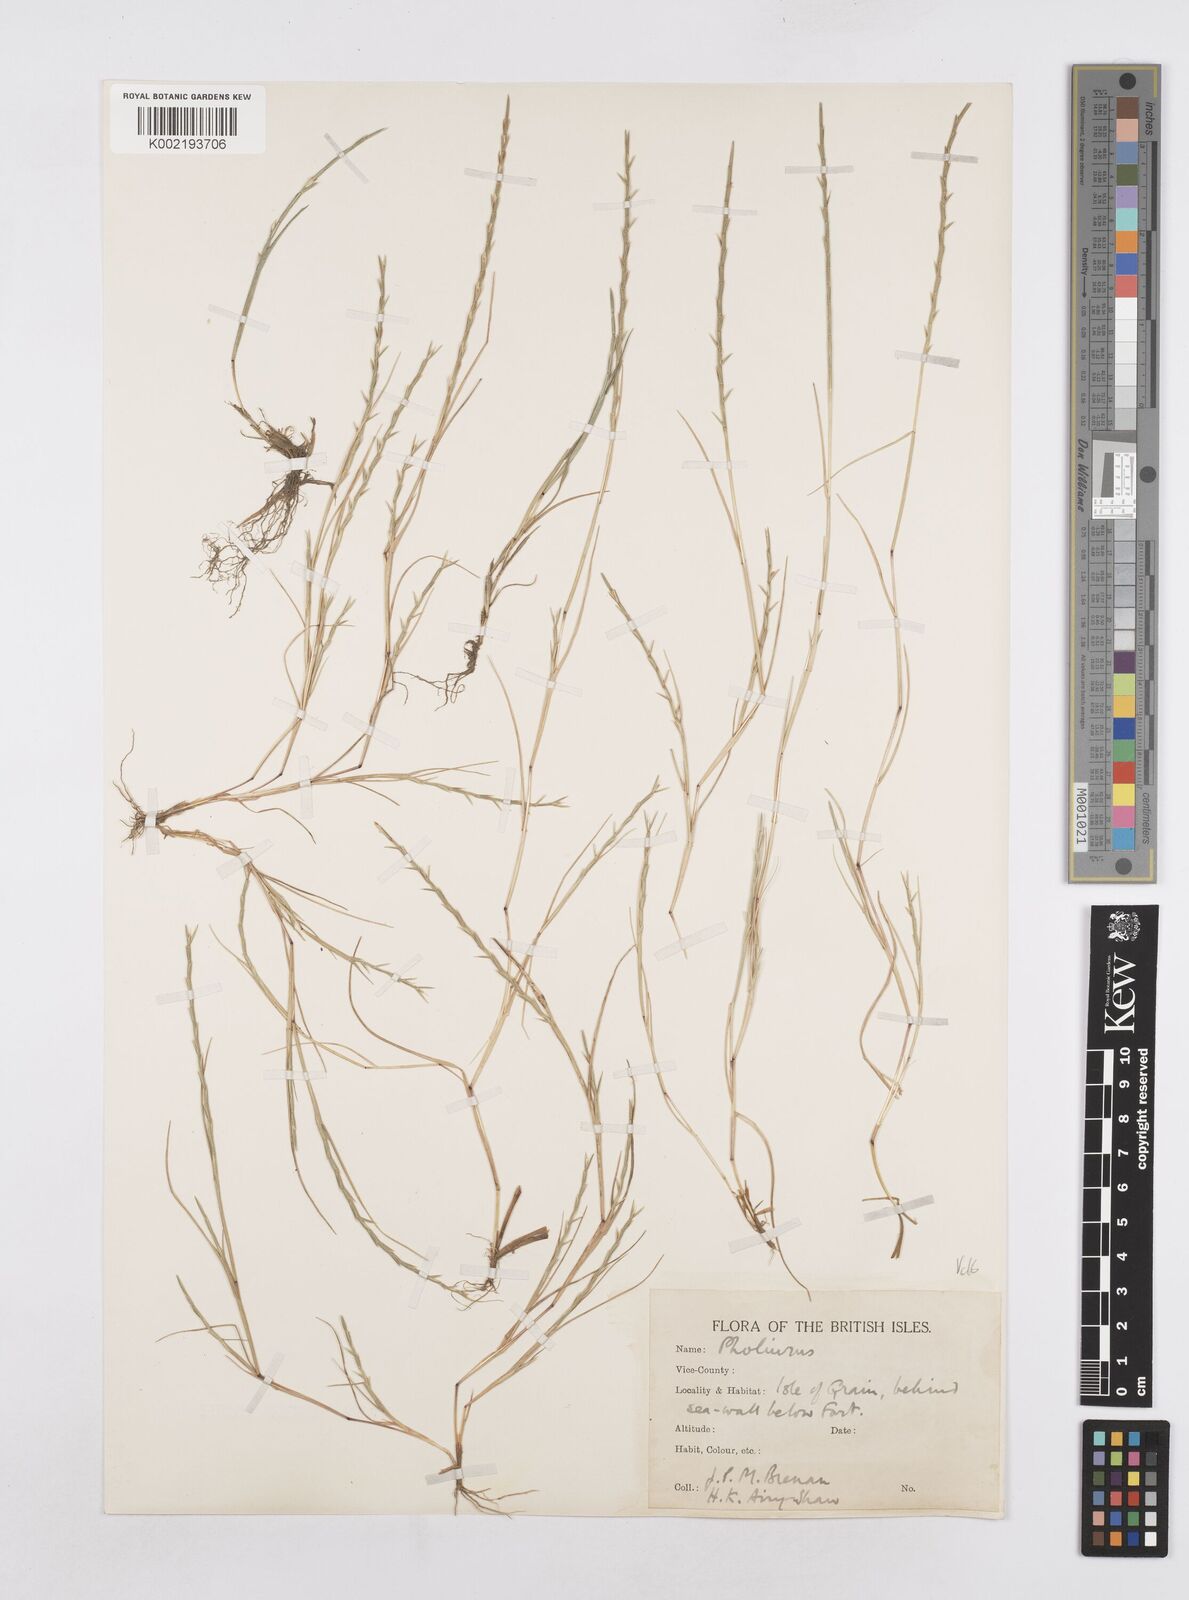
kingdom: Plantae
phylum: Tracheophyta
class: Liliopsida
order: Poales
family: Poaceae
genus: Parapholis
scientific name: Parapholis strigosa
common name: Hard-grass
